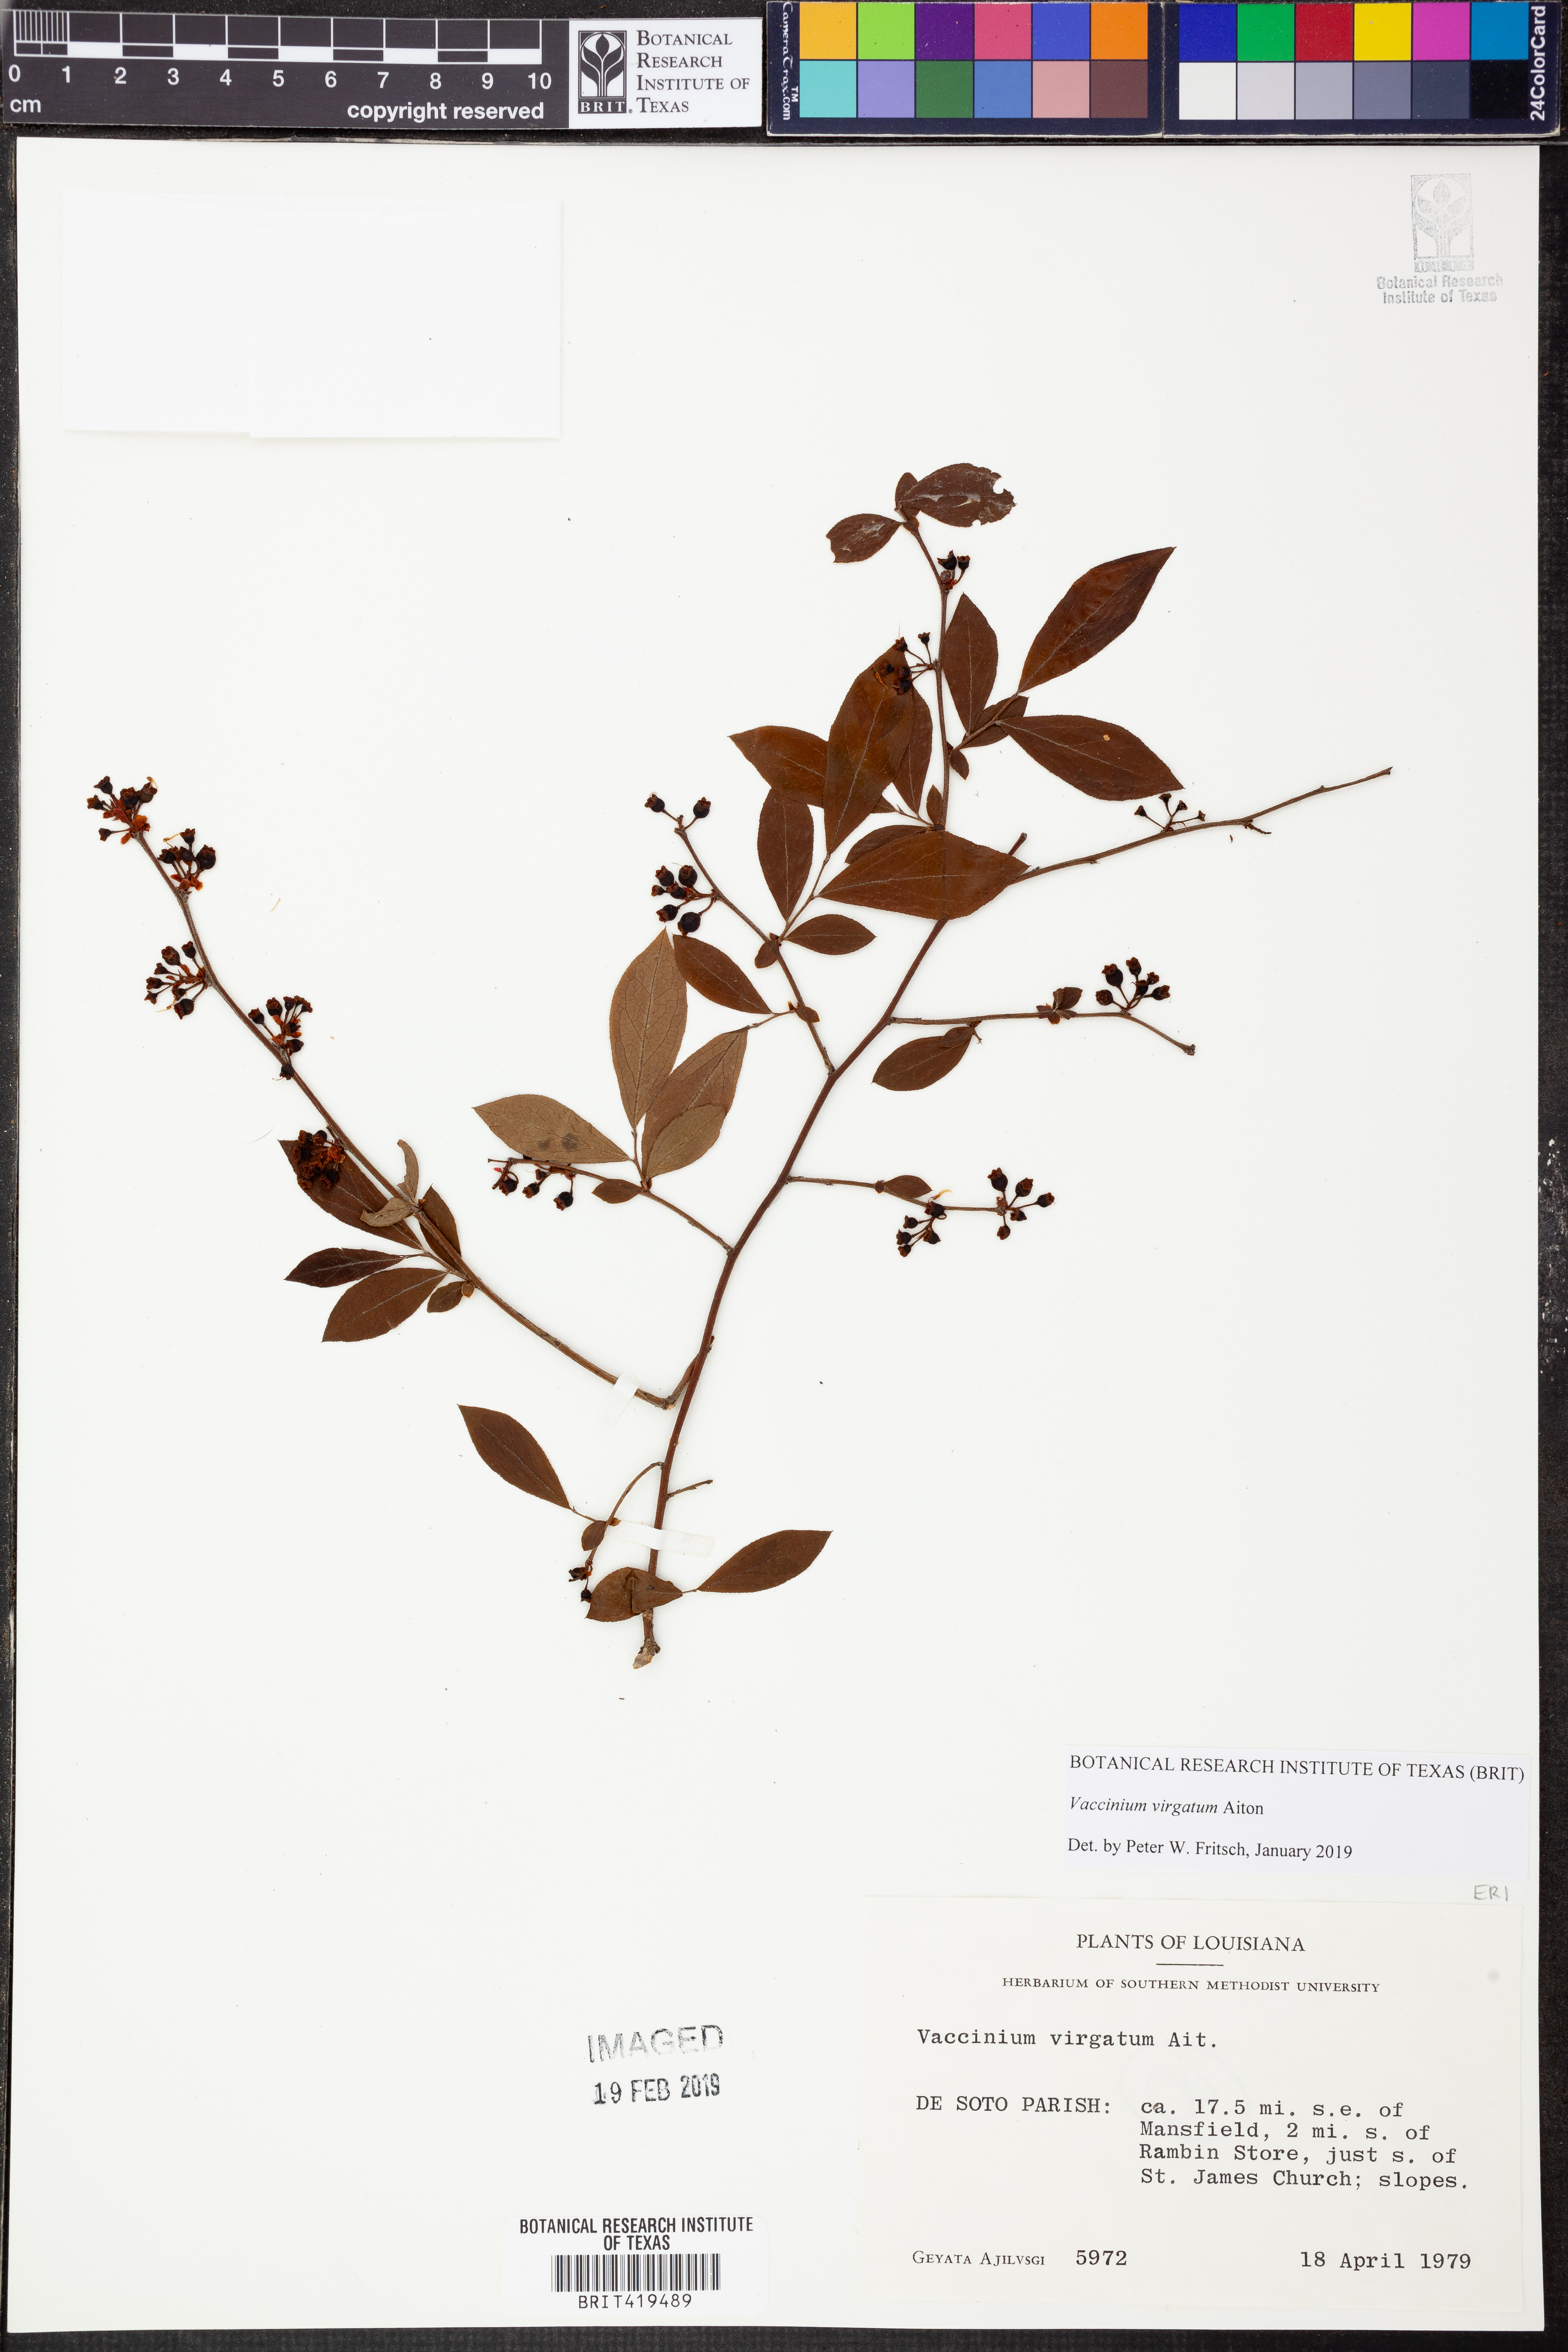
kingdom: Plantae
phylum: Tracheophyta
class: Magnoliopsida
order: Ericales
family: Ericaceae
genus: Vaccinium
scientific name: Vaccinium corymbosum
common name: Blueberry
